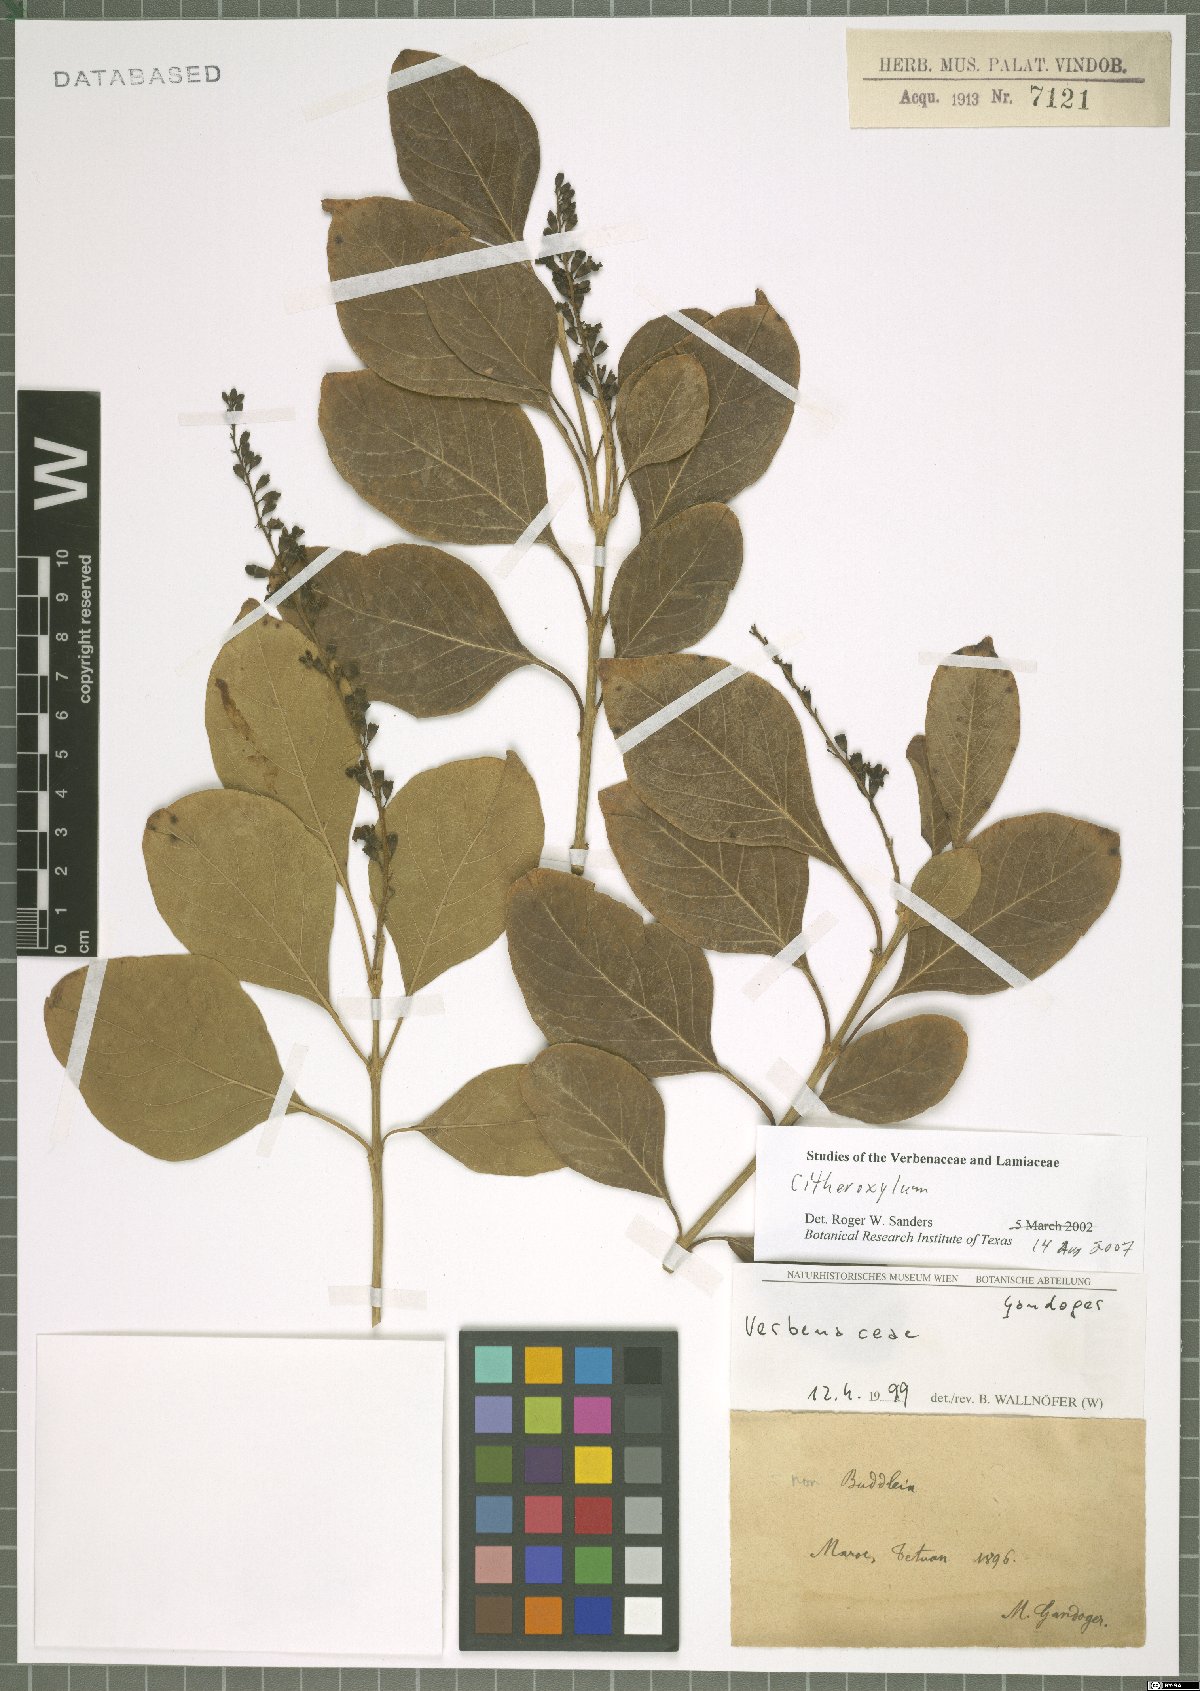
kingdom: Plantae
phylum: Tracheophyta
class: Magnoliopsida
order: Lamiales
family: Verbenaceae
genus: Citharexylum
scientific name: Citharexylum
